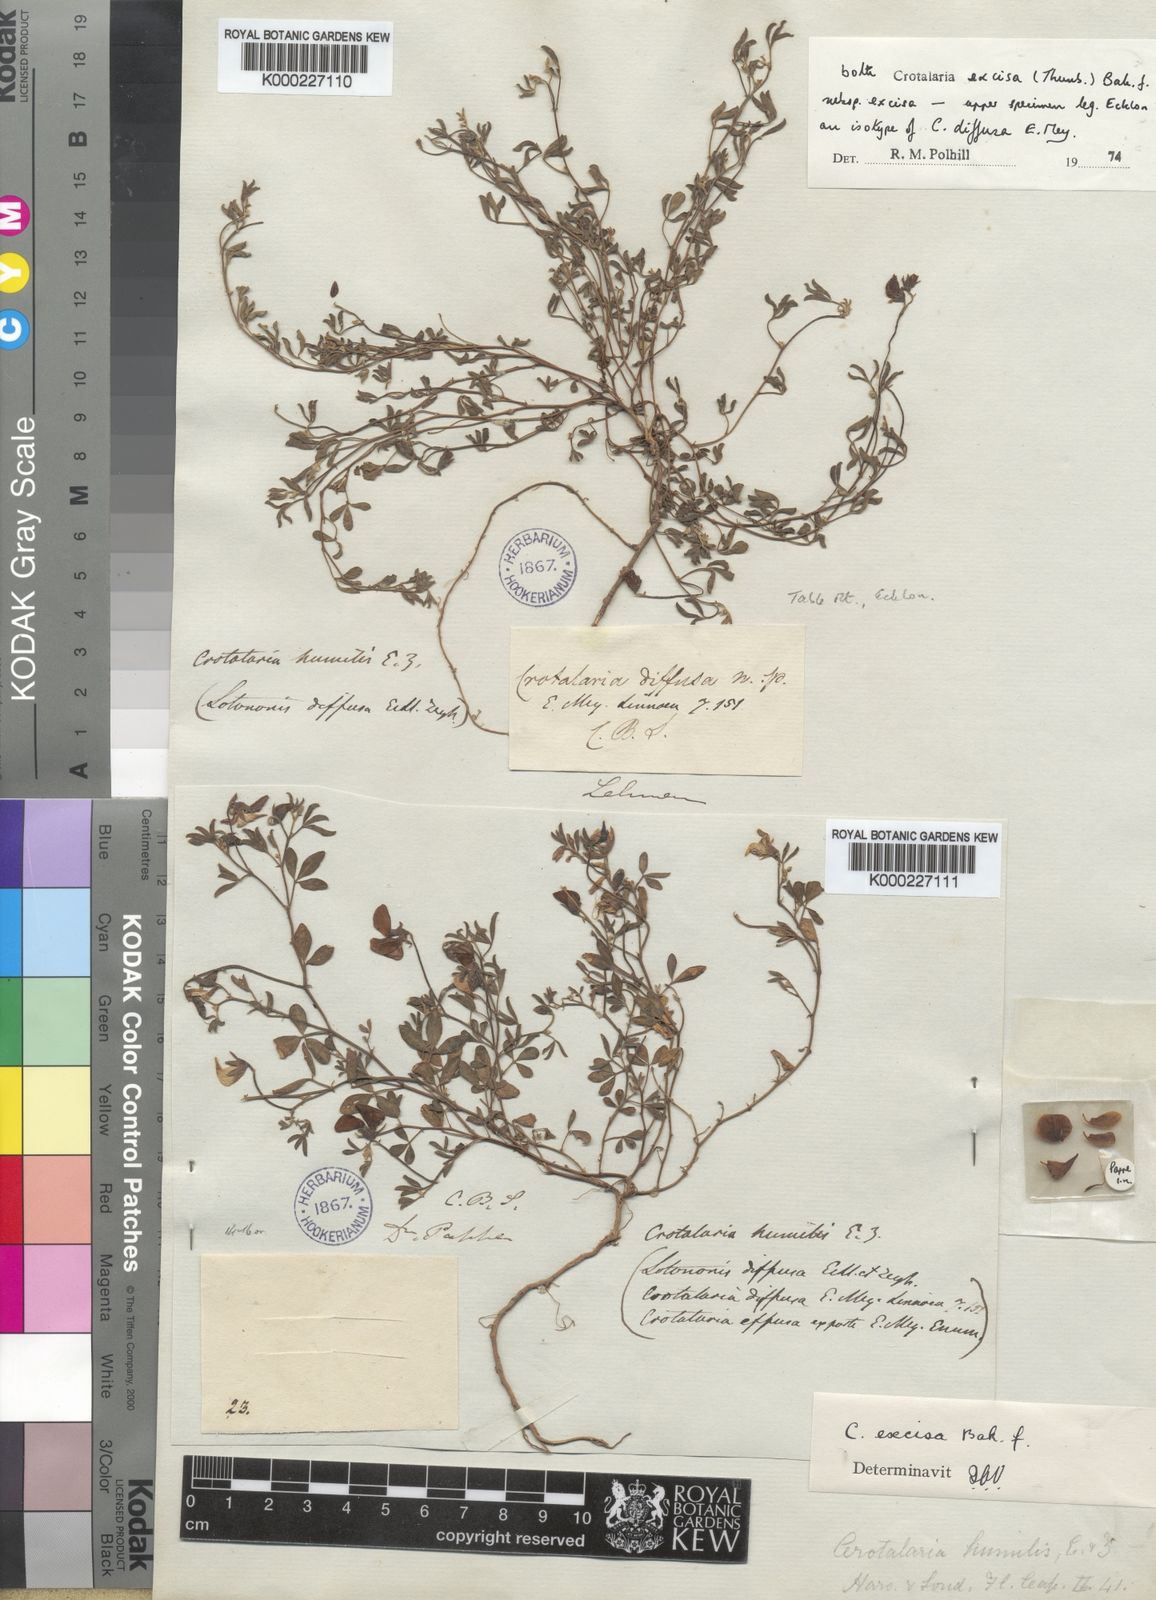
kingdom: Plantae
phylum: Tracheophyta
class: Magnoliopsida
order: Fabales
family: Fabaceae
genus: Crotalaria
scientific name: Crotalaria excisa
